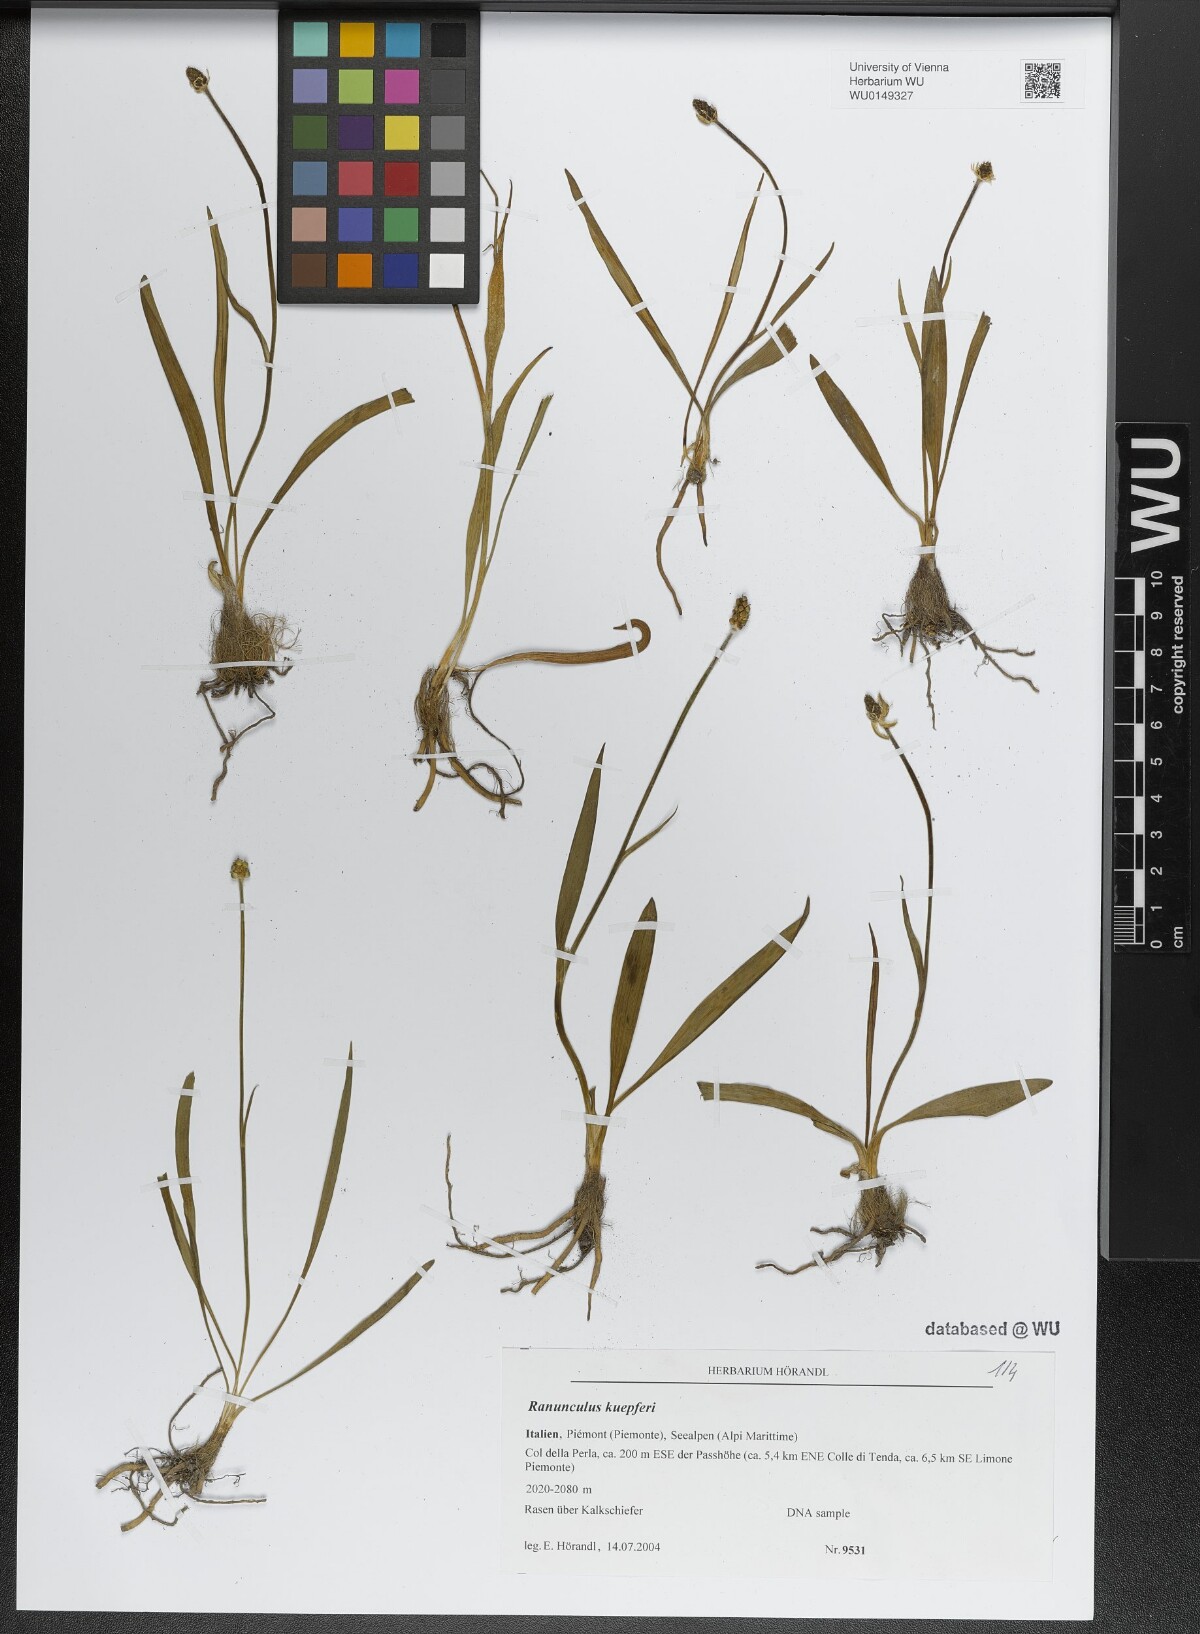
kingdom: Plantae
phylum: Tracheophyta
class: Magnoliopsida
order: Ranunculales
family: Ranunculaceae
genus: Ranunculus
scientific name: Ranunculus kuepferi
